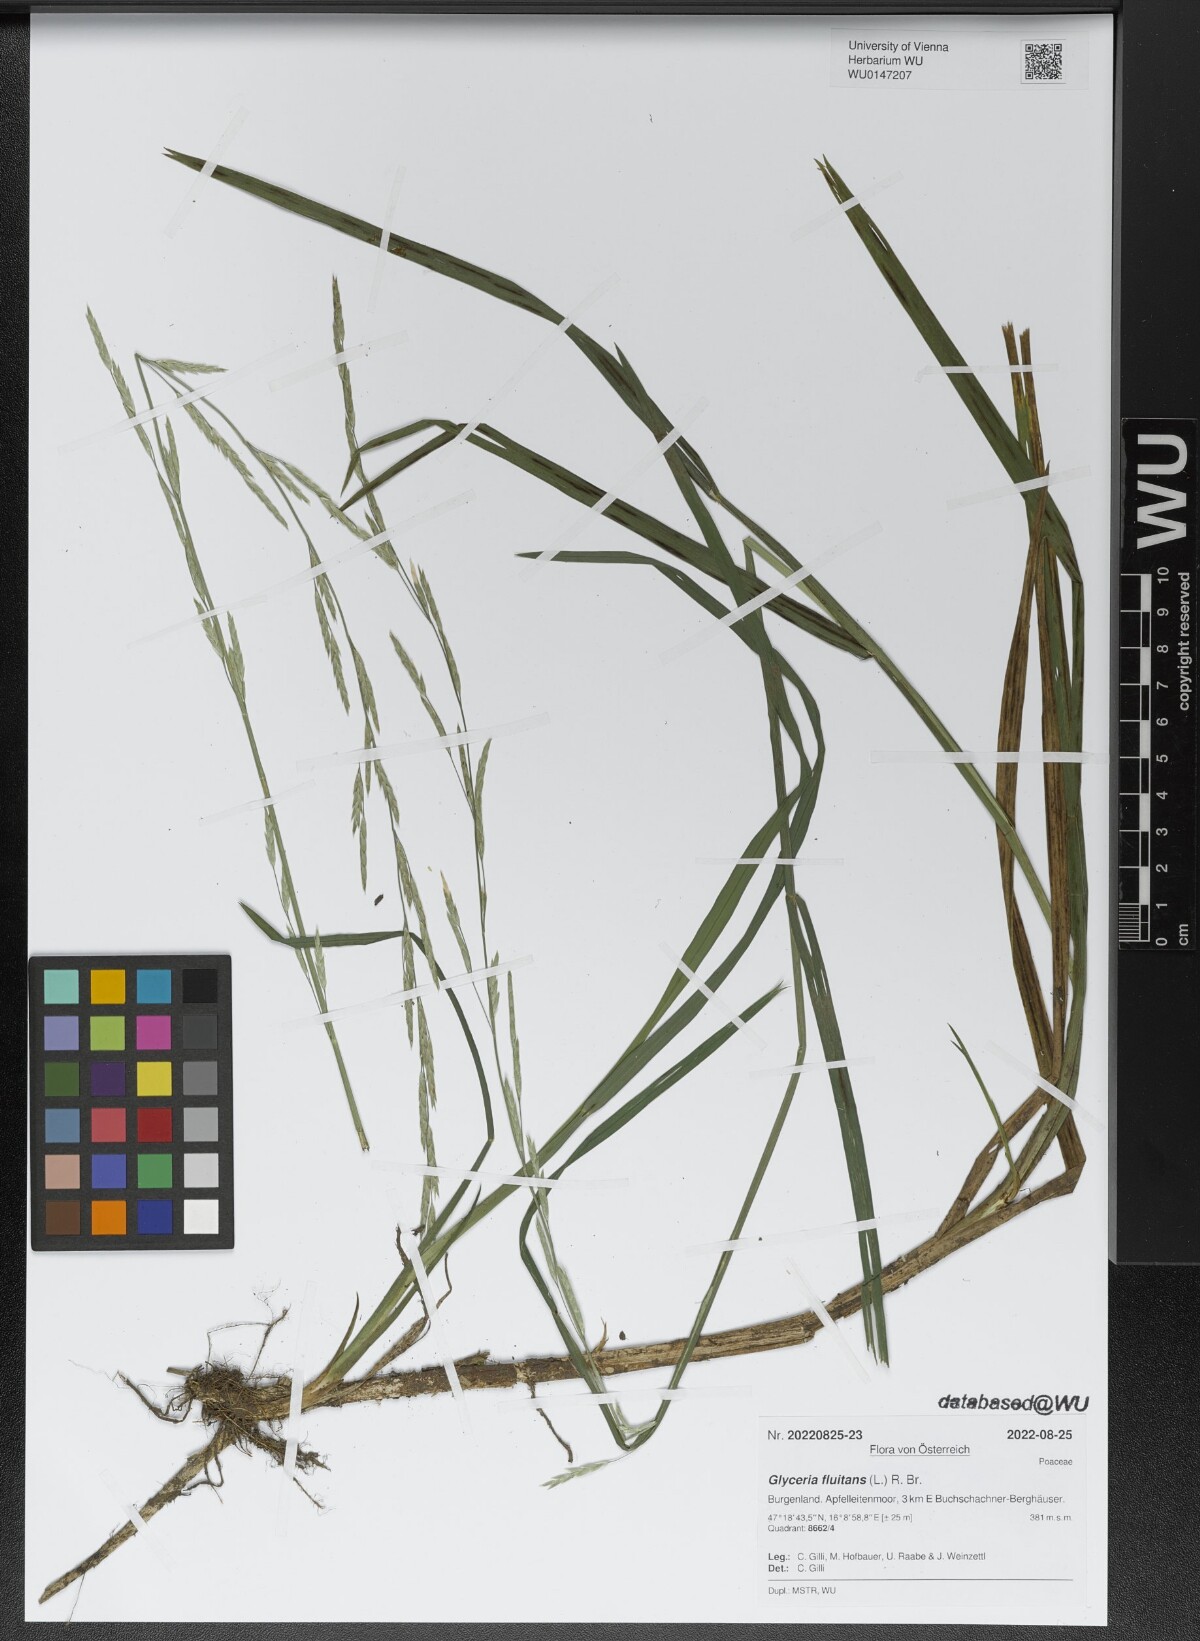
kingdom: Plantae
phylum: Tracheophyta
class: Liliopsida
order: Poales
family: Poaceae
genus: Glyceria
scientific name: Glyceria fluitans
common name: Floating sweet-grass
